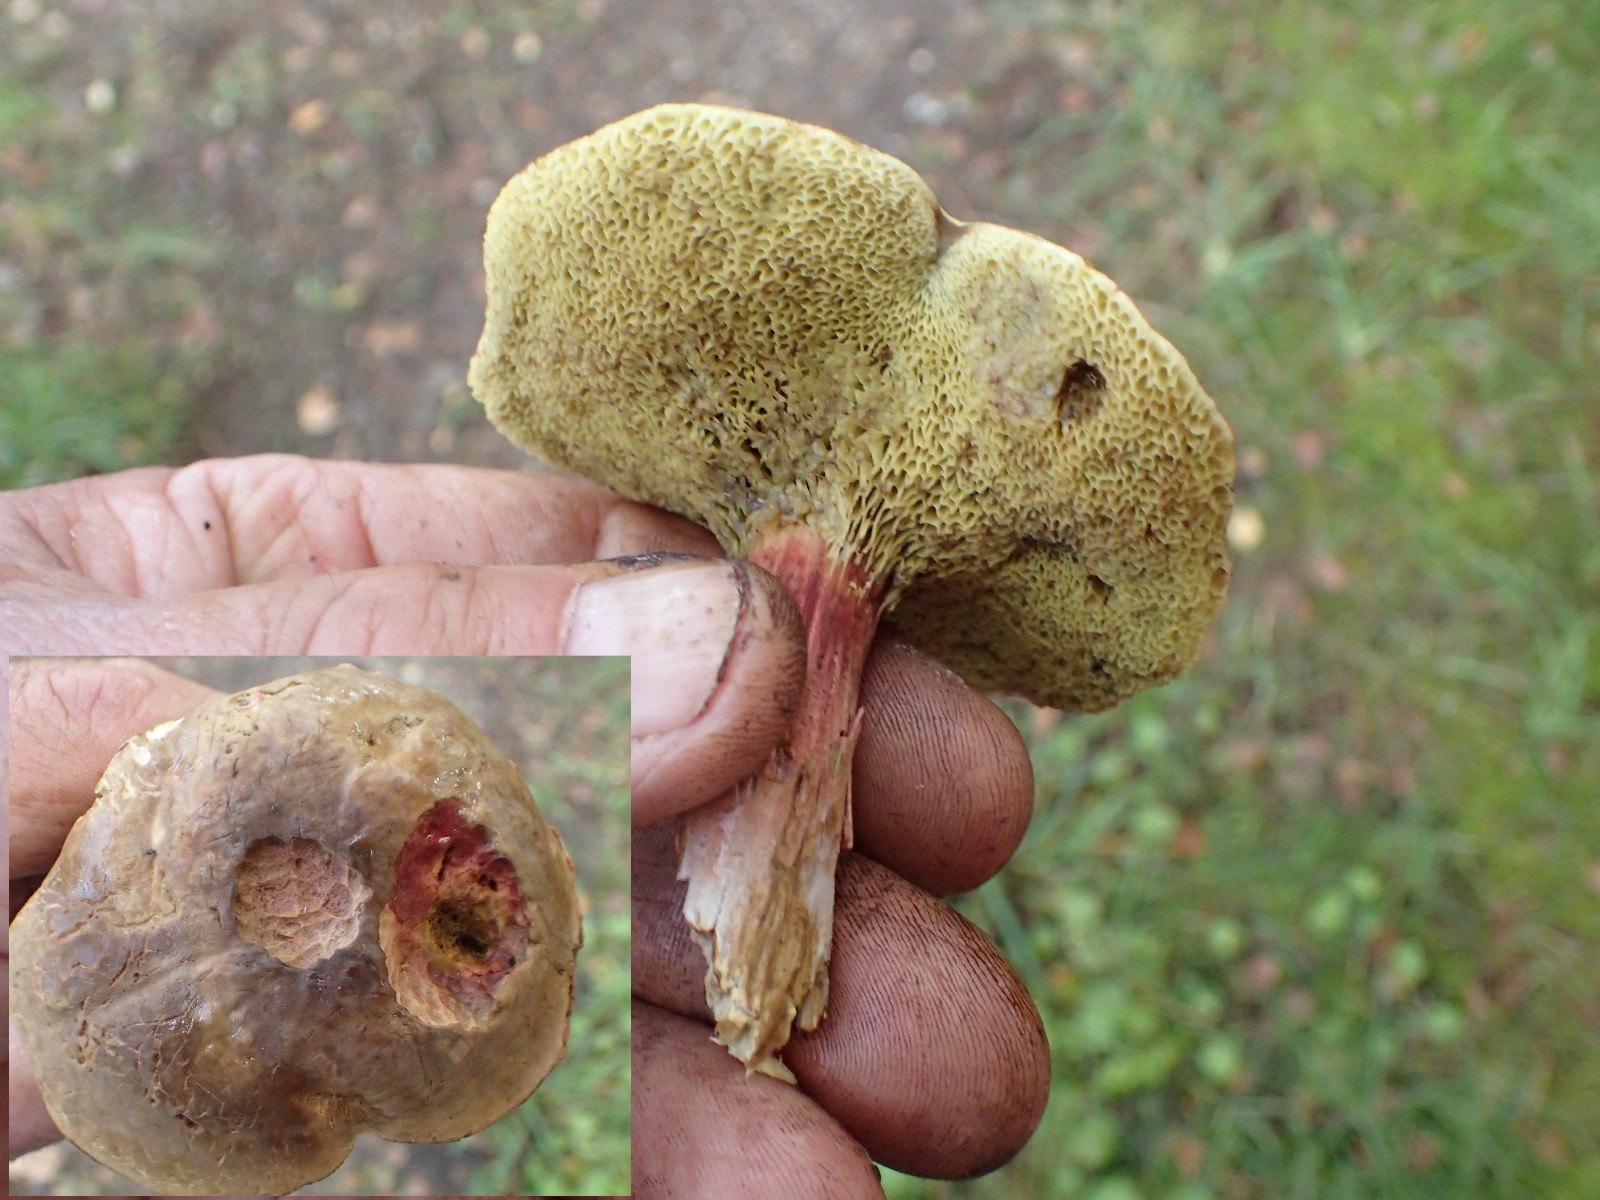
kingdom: Fungi
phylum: Basidiomycota
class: Agaricomycetes
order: Boletales
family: Boletaceae
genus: Xerocomellus
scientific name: Xerocomellus chrysenteron
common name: rødsprukken rørhat
